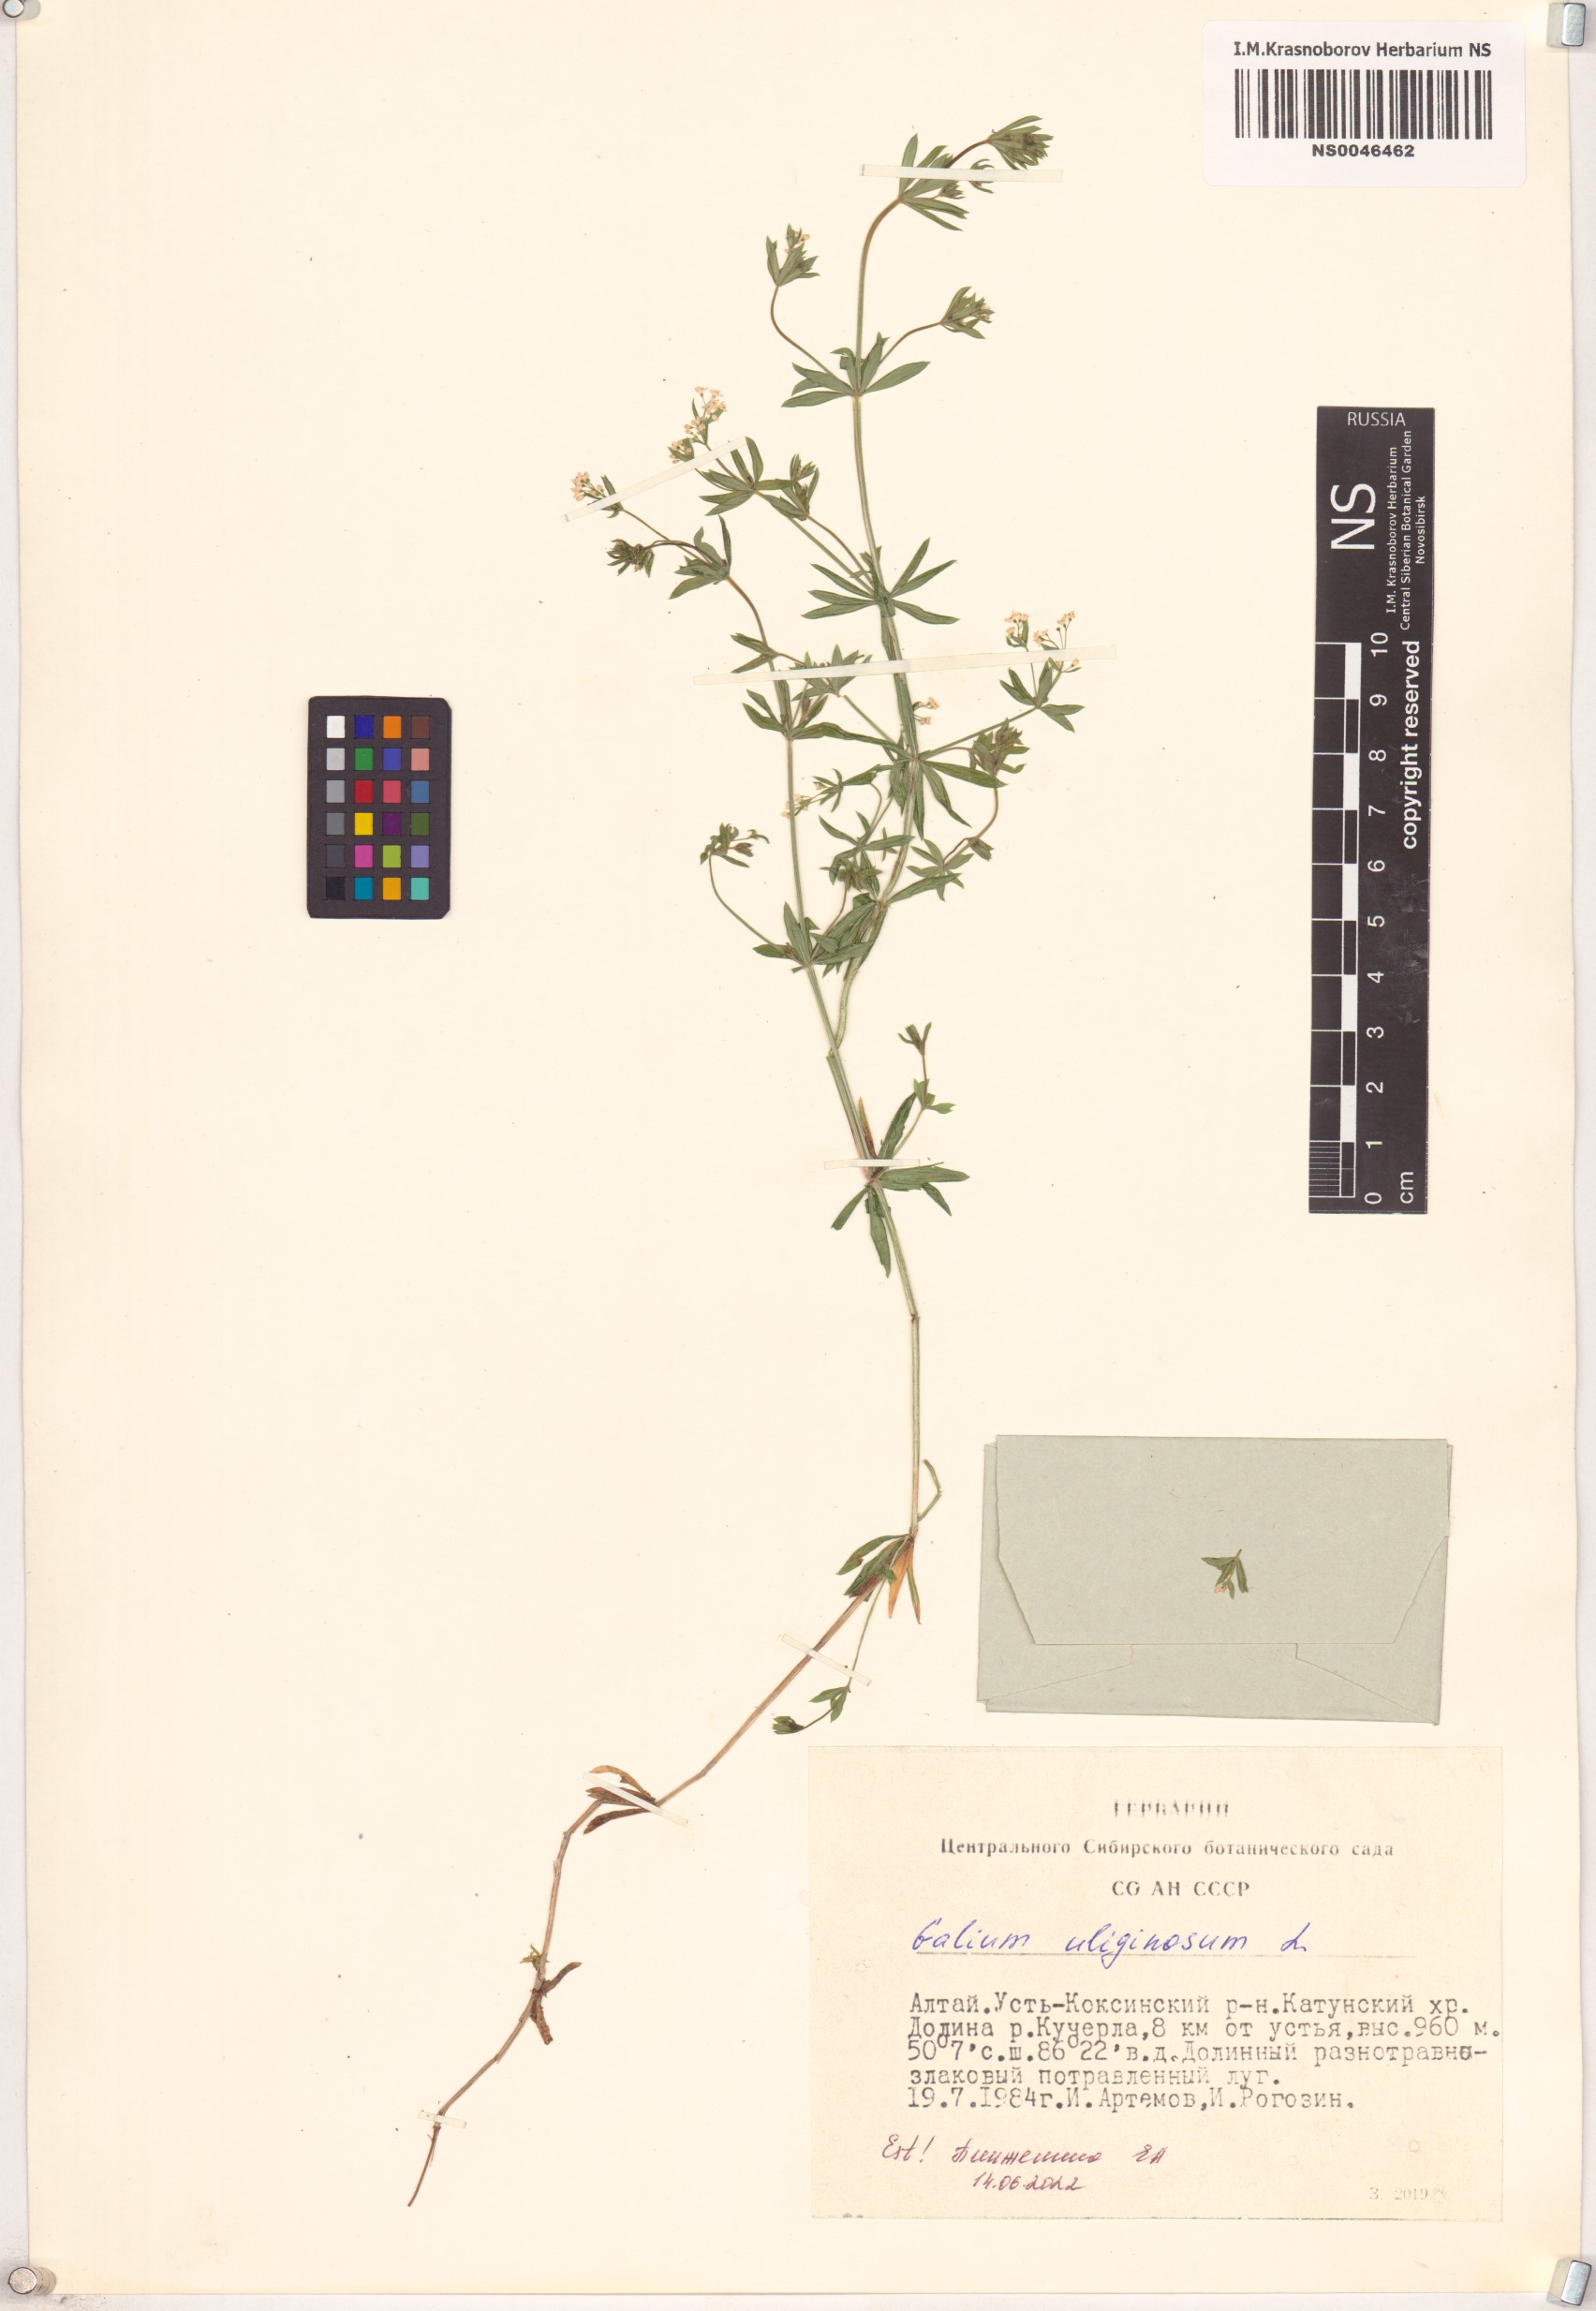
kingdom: Plantae
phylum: Tracheophyta
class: Magnoliopsida
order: Gentianales
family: Rubiaceae
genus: Galium
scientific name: Galium uliginosum
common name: Fen bedstraw
